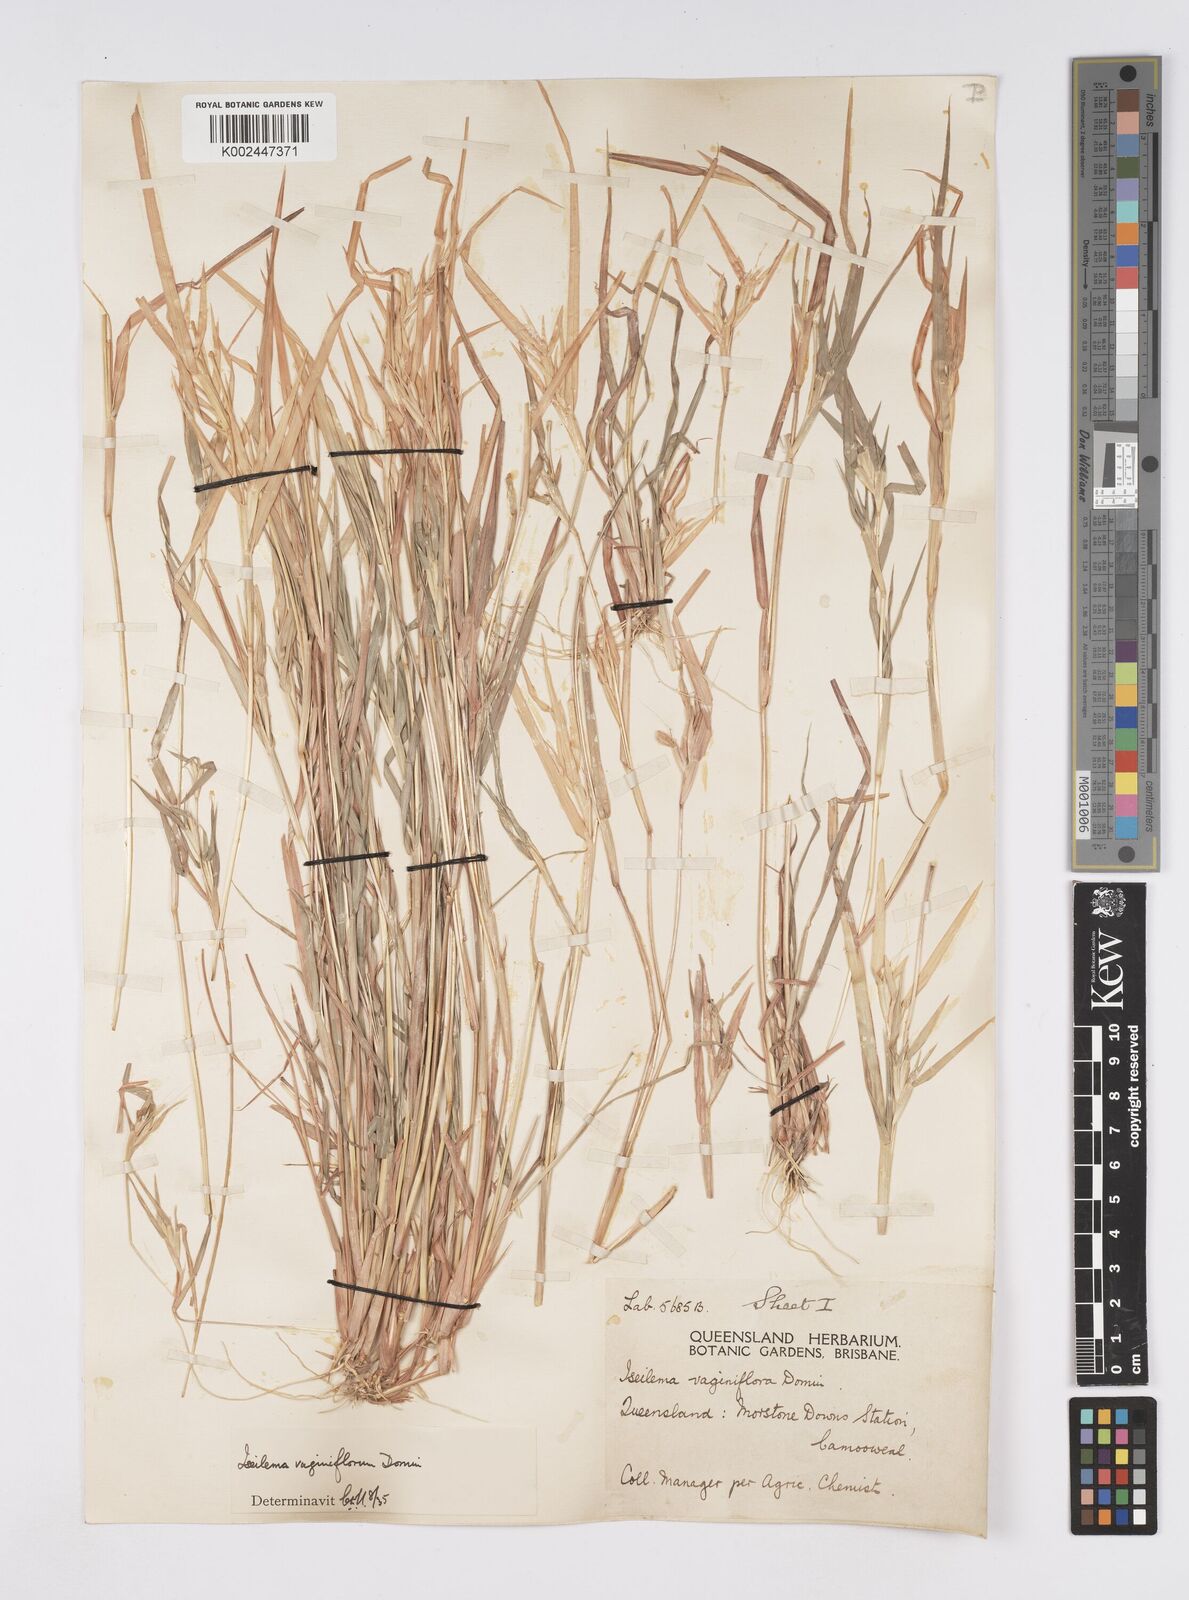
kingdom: Plantae
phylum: Tracheophyta
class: Liliopsida
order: Poales
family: Poaceae
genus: Iseilema
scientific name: Iseilema vaginiflorum
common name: Red flinders grass
